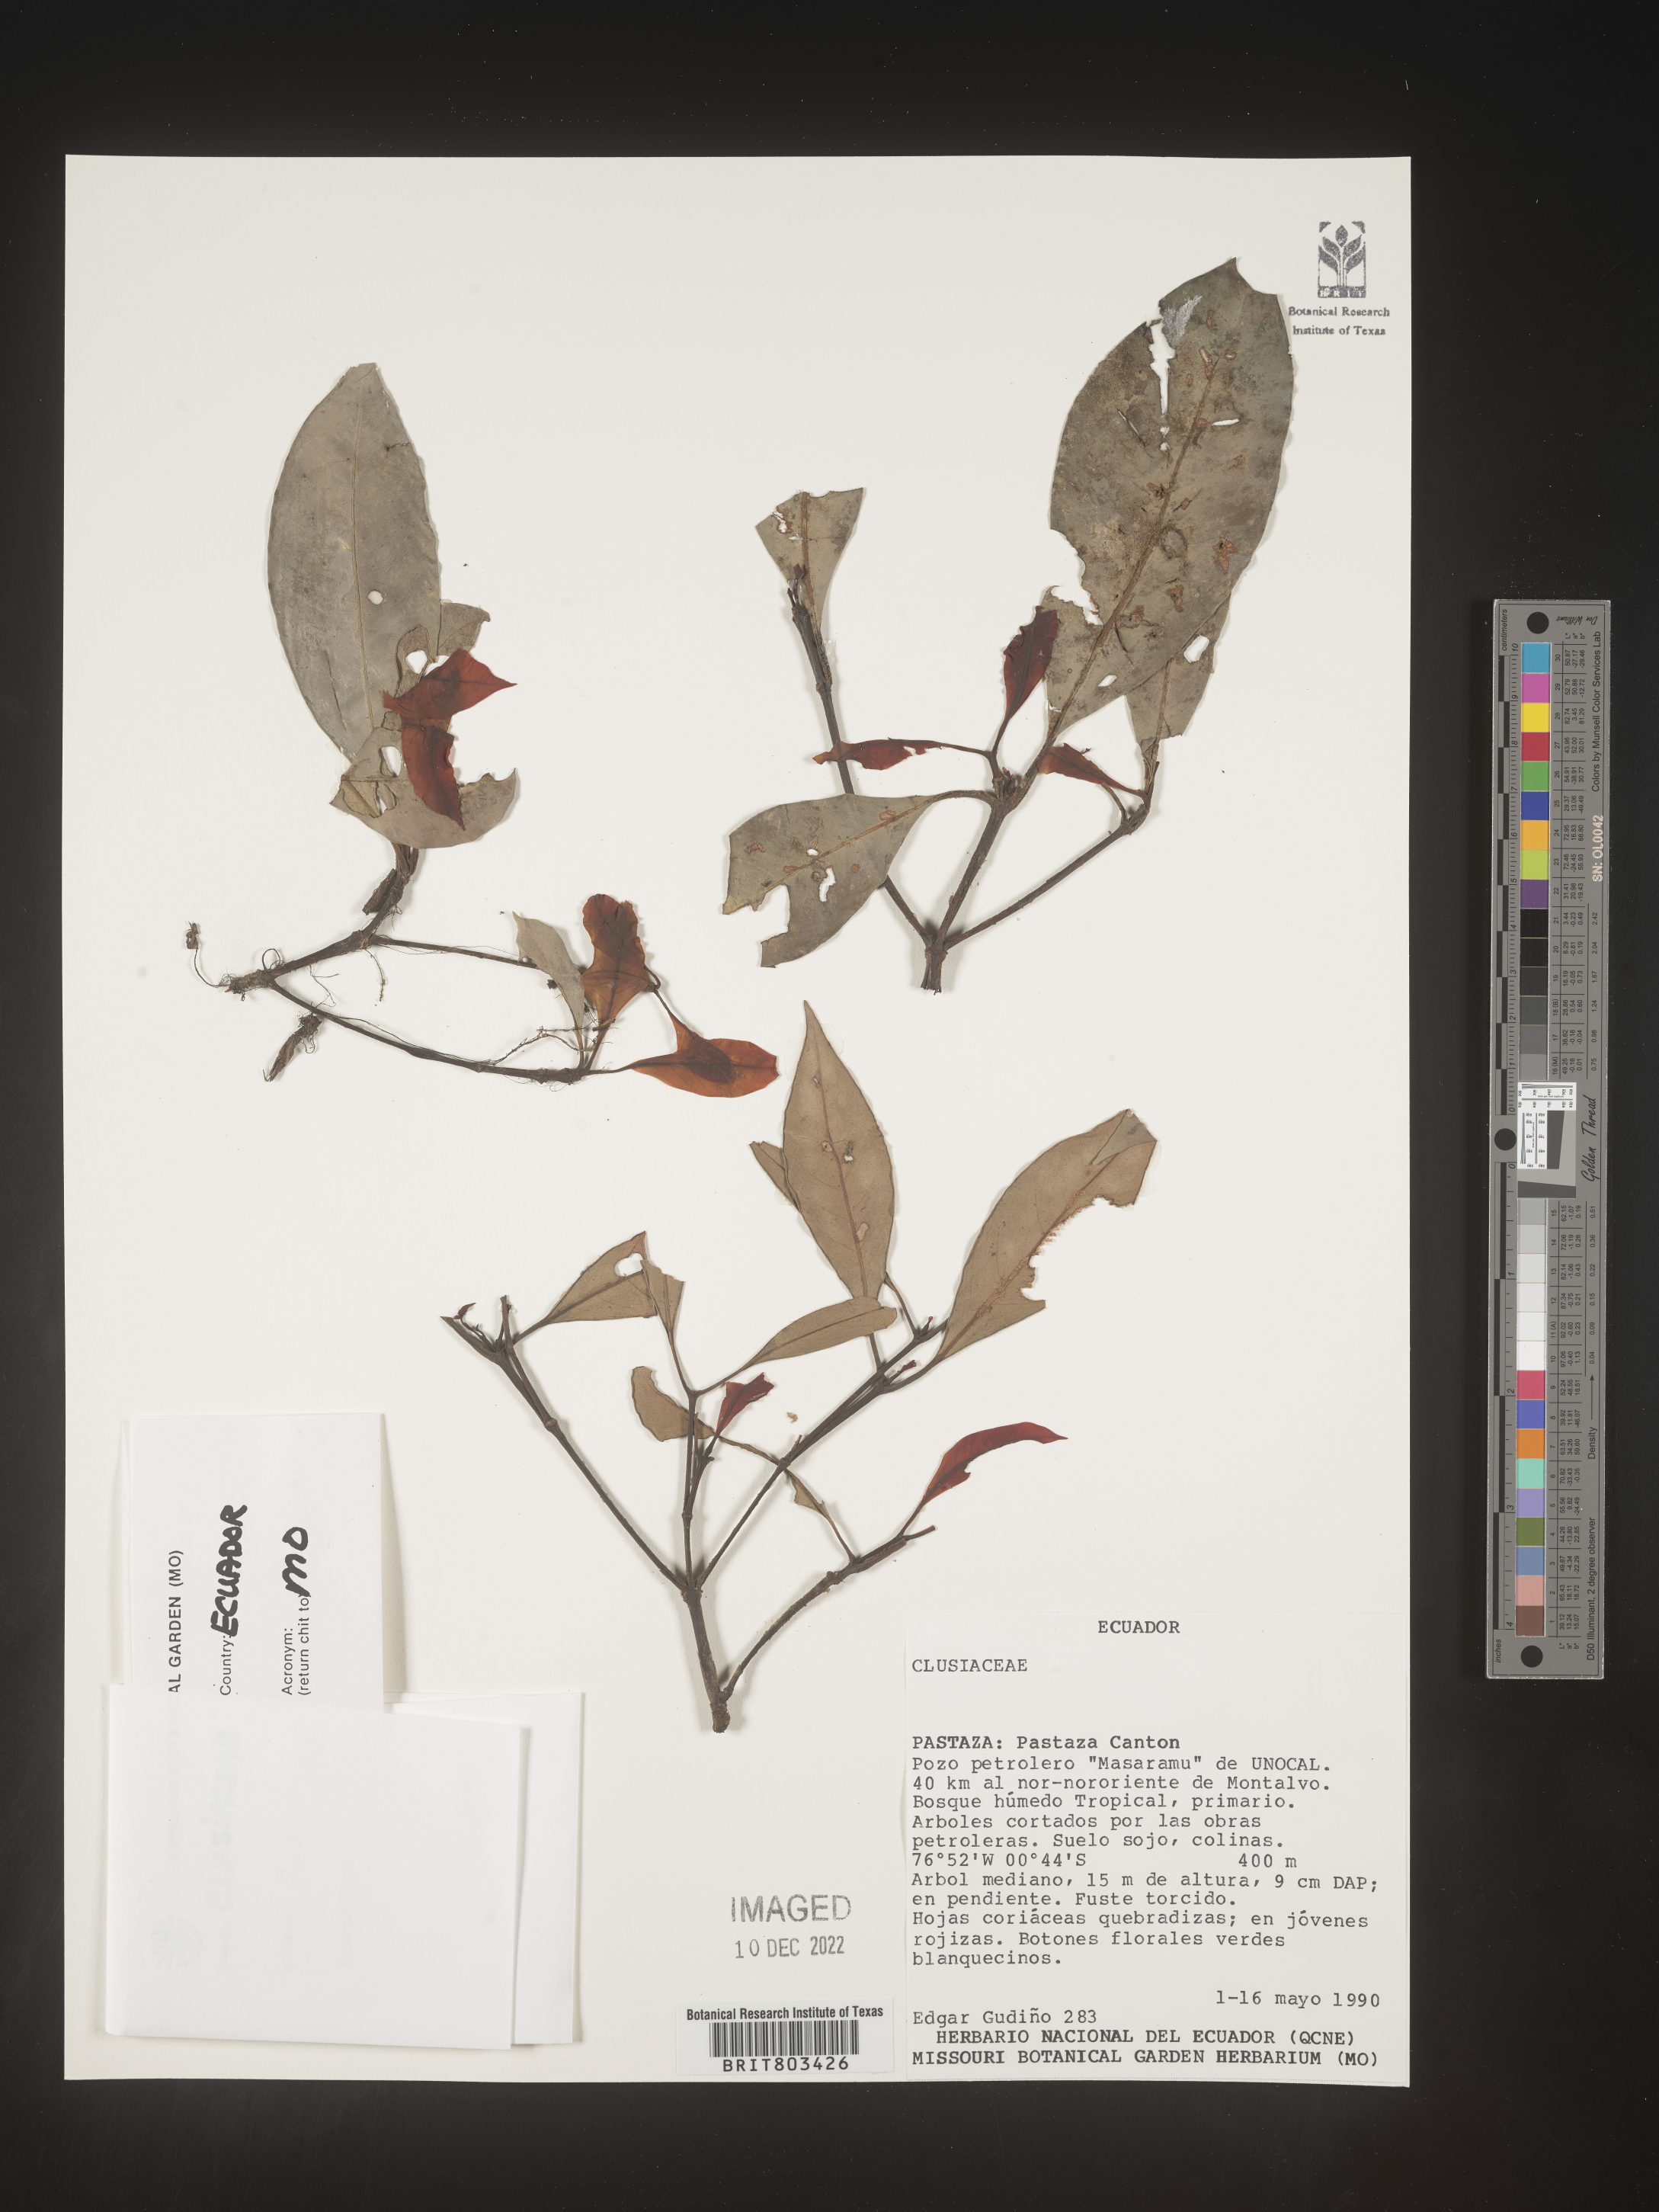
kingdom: Plantae
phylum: Tracheophyta
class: Magnoliopsida
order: Malpighiales
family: Clusiaceae
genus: Tovomita
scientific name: Tovomita
